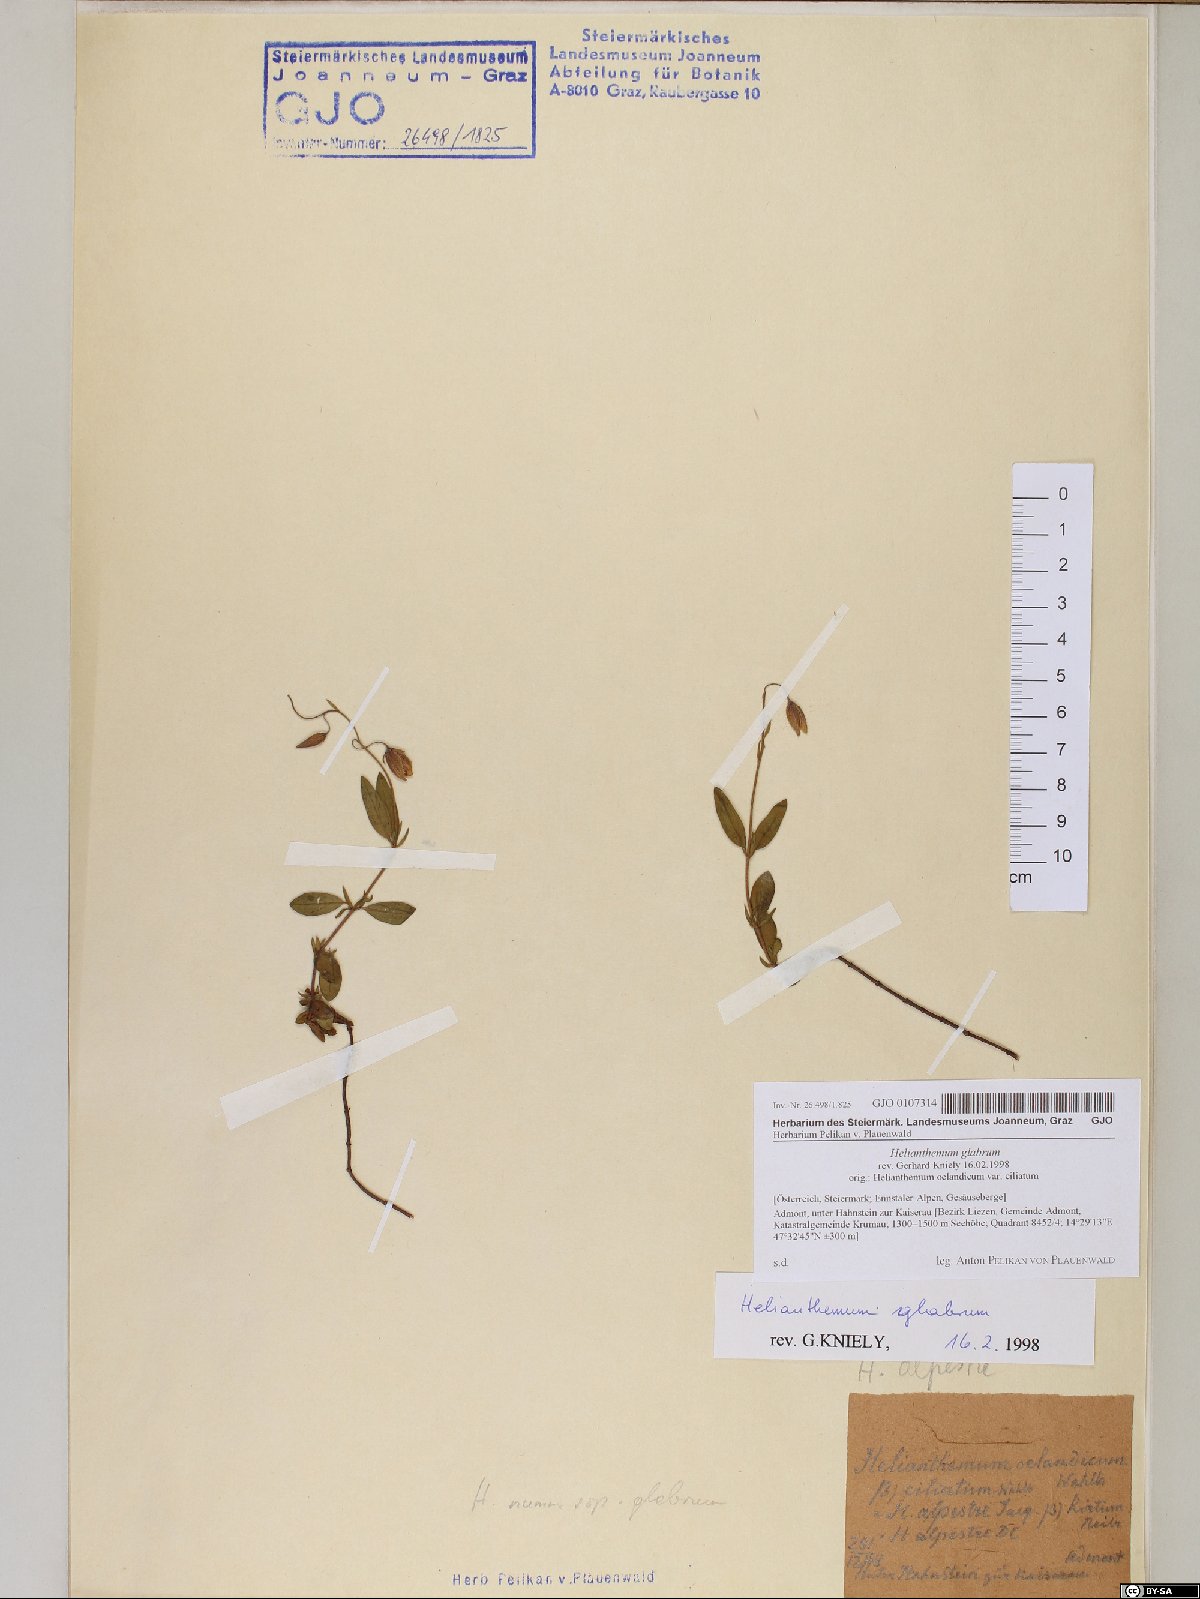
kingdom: Plantae
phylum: Tracheophyta
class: Magnoliopsida
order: Malvales
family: Cistaceae
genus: Helianthemum
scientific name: Helianthemum nummularium
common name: Common rock-rose
